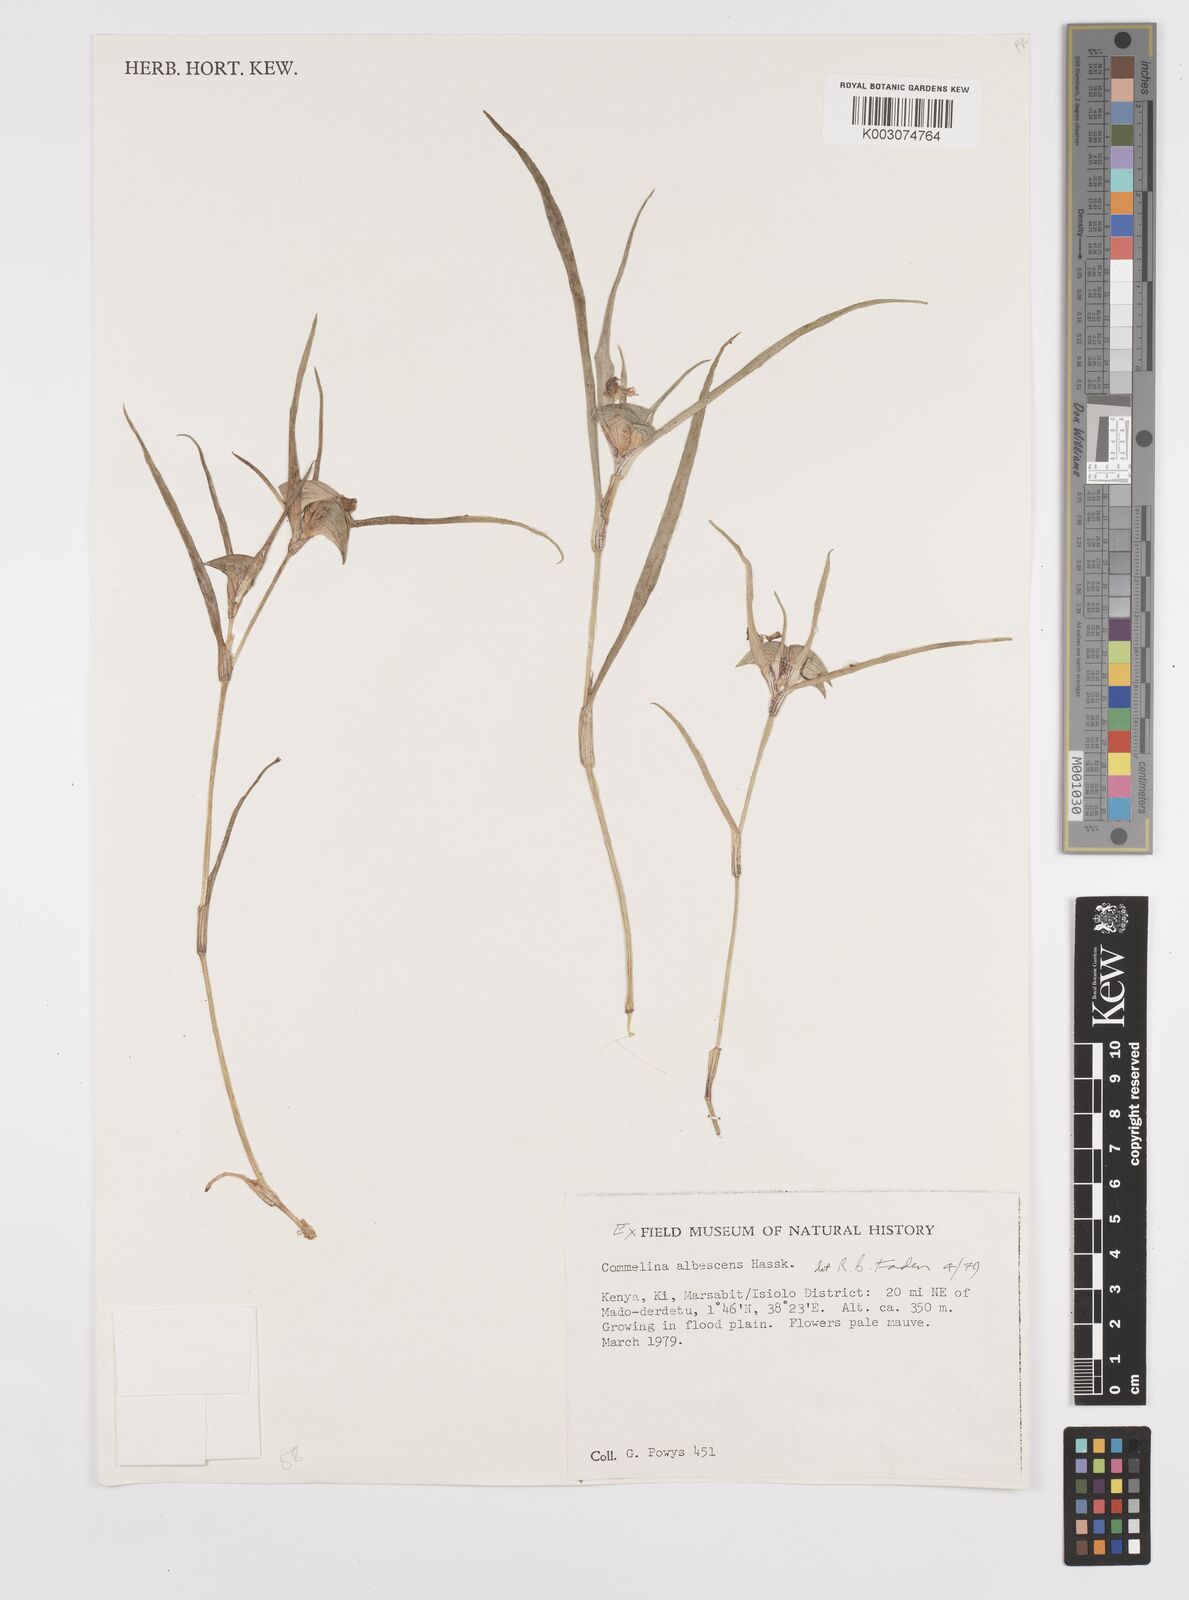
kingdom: Plantae
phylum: Tracheophyta
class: Liliopsida
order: Commelinales
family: Commelinaceae
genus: Commelina
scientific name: Commelina albescens
